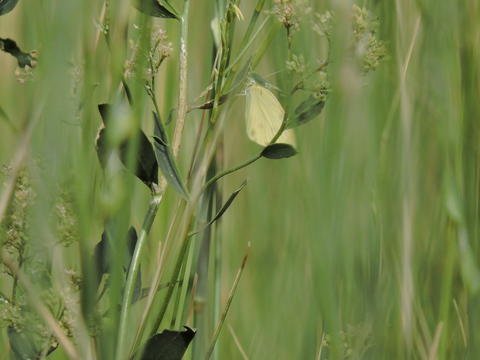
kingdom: Animalia
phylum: Arthropoda
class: Insecta
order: Lepidoptera
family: Pieridae
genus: Colias
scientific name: Colias philodice
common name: Clouded Sulphur
